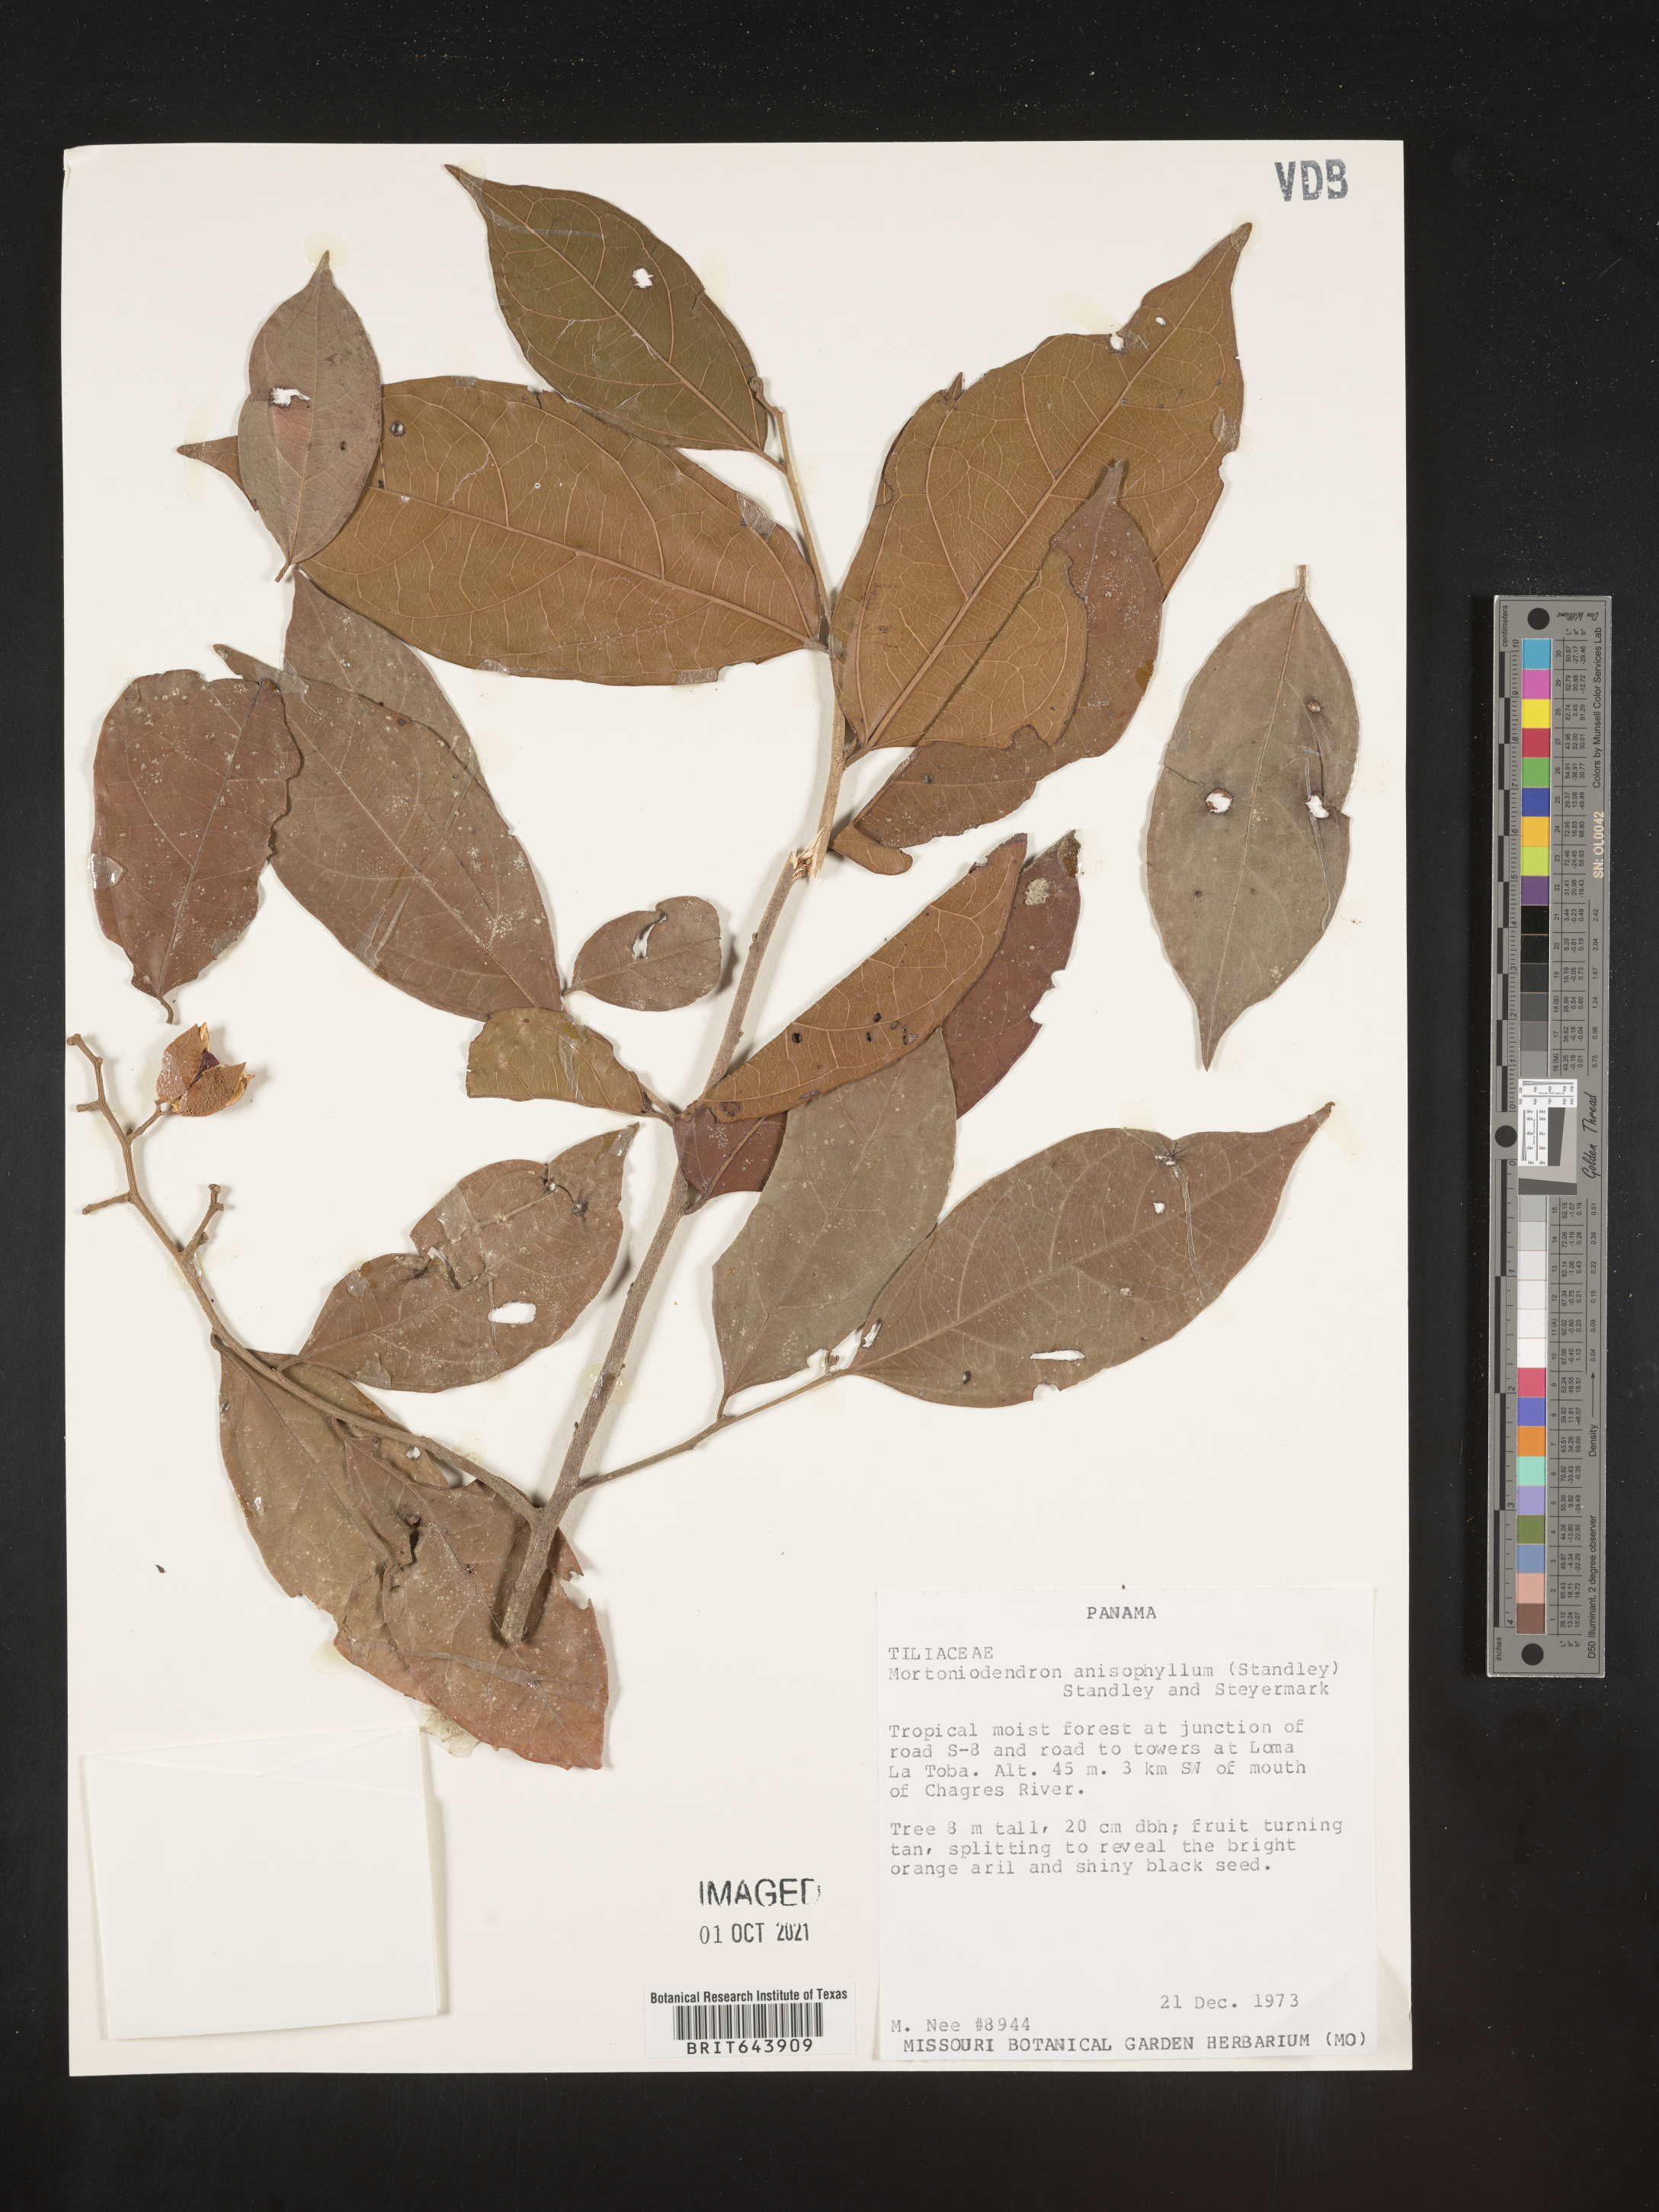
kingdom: Plantae
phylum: Tracheophyta
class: Magnoliopsida
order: Malvales
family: Malvaceae
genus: Mortoniodendron
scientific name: Mortoniodendron
